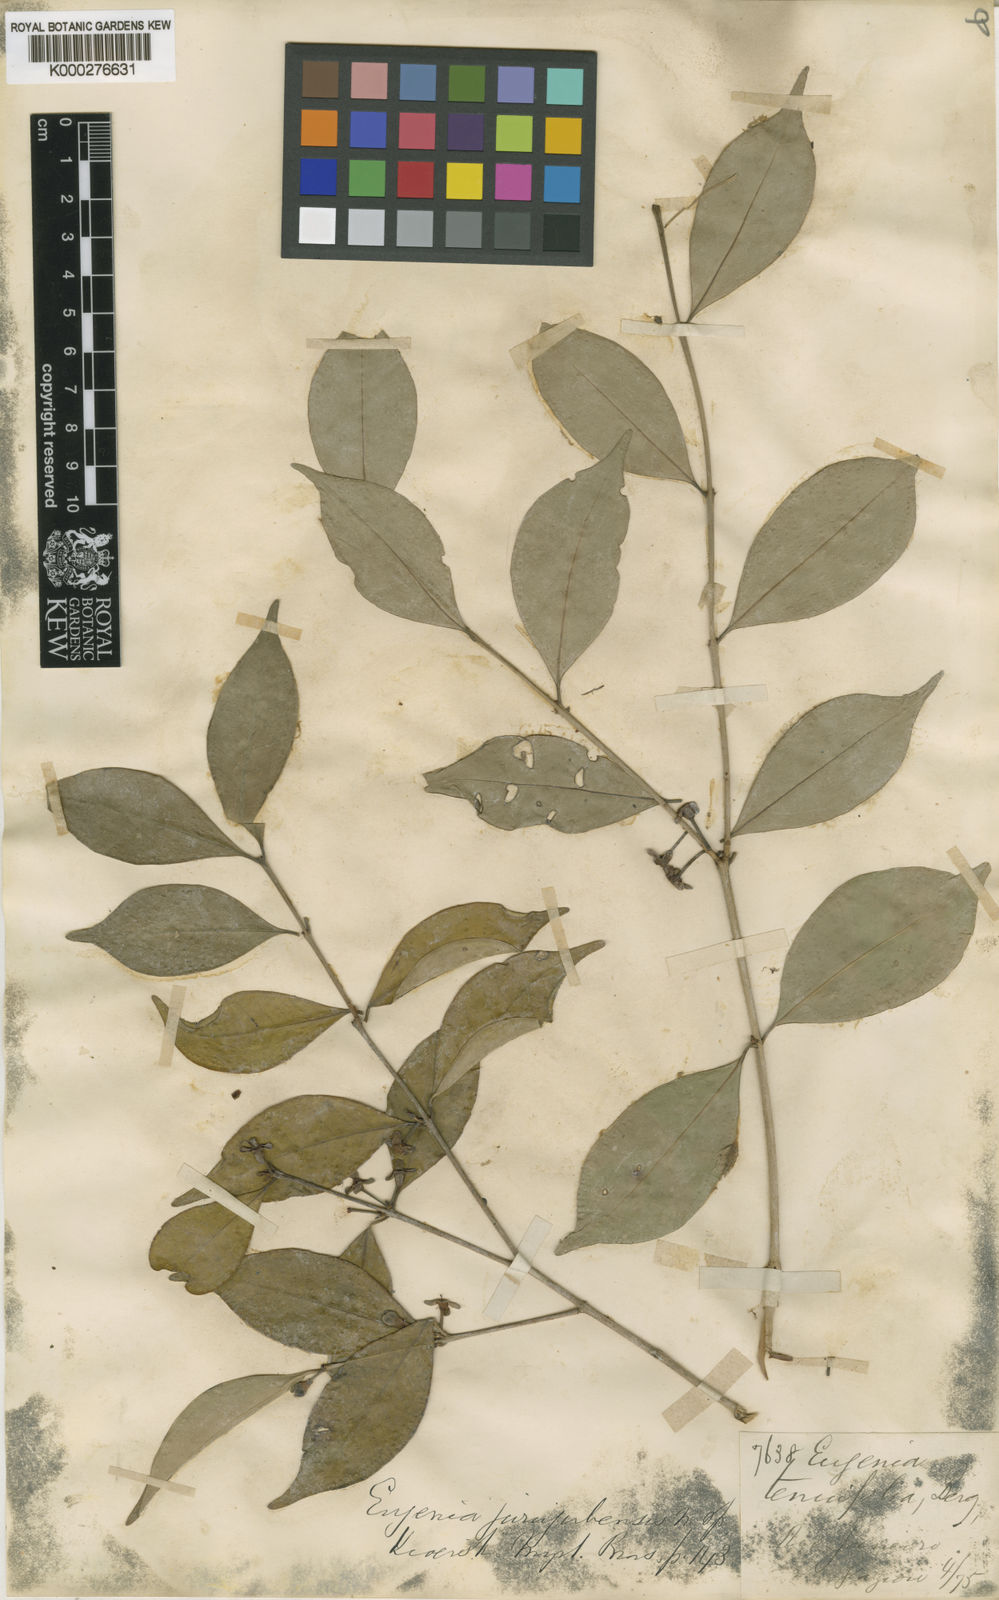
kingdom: Plantae
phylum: Tracheophyta
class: Magnoliopsida
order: Myrtales
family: Myrtaceae
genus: Eugenia
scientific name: Eugenia prasina
